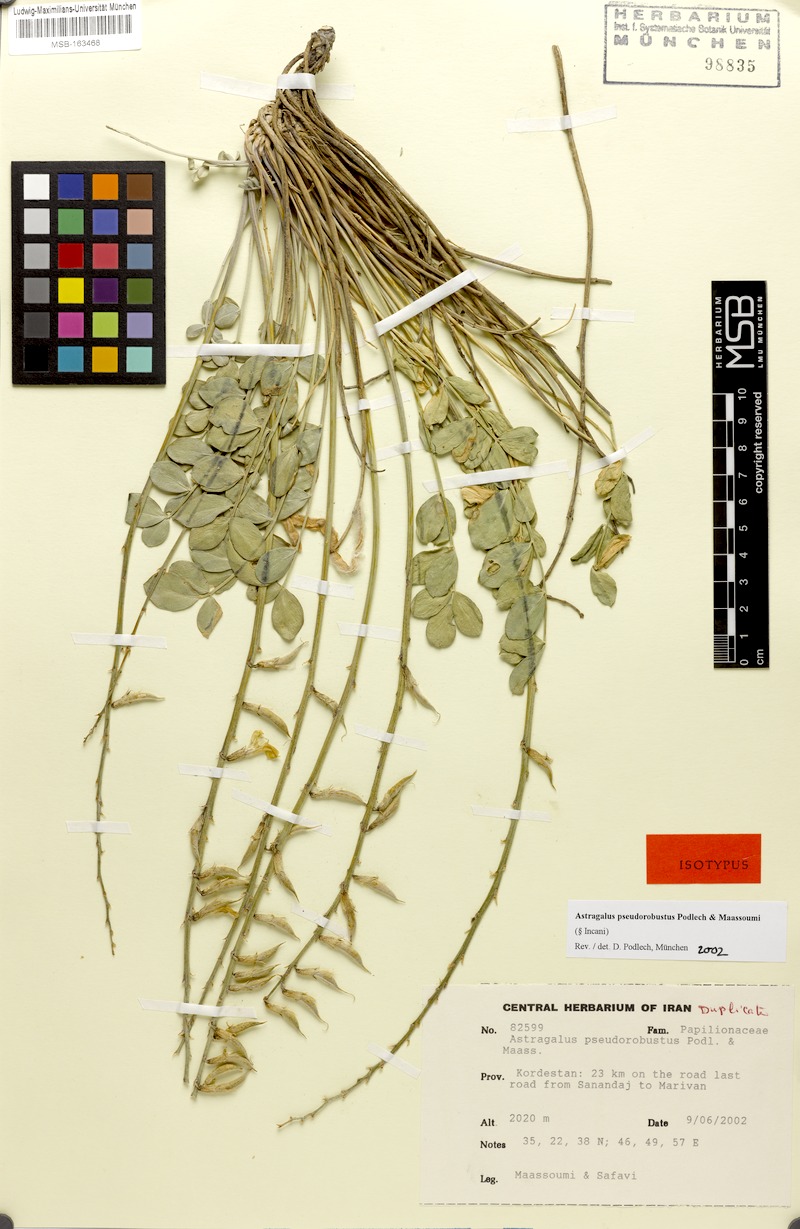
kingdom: Plantae
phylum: Tracheophyta
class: Magnoliopsida
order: Fabales
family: Fabaceae
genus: Astragalus
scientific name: Astragalus pseudorobustus
